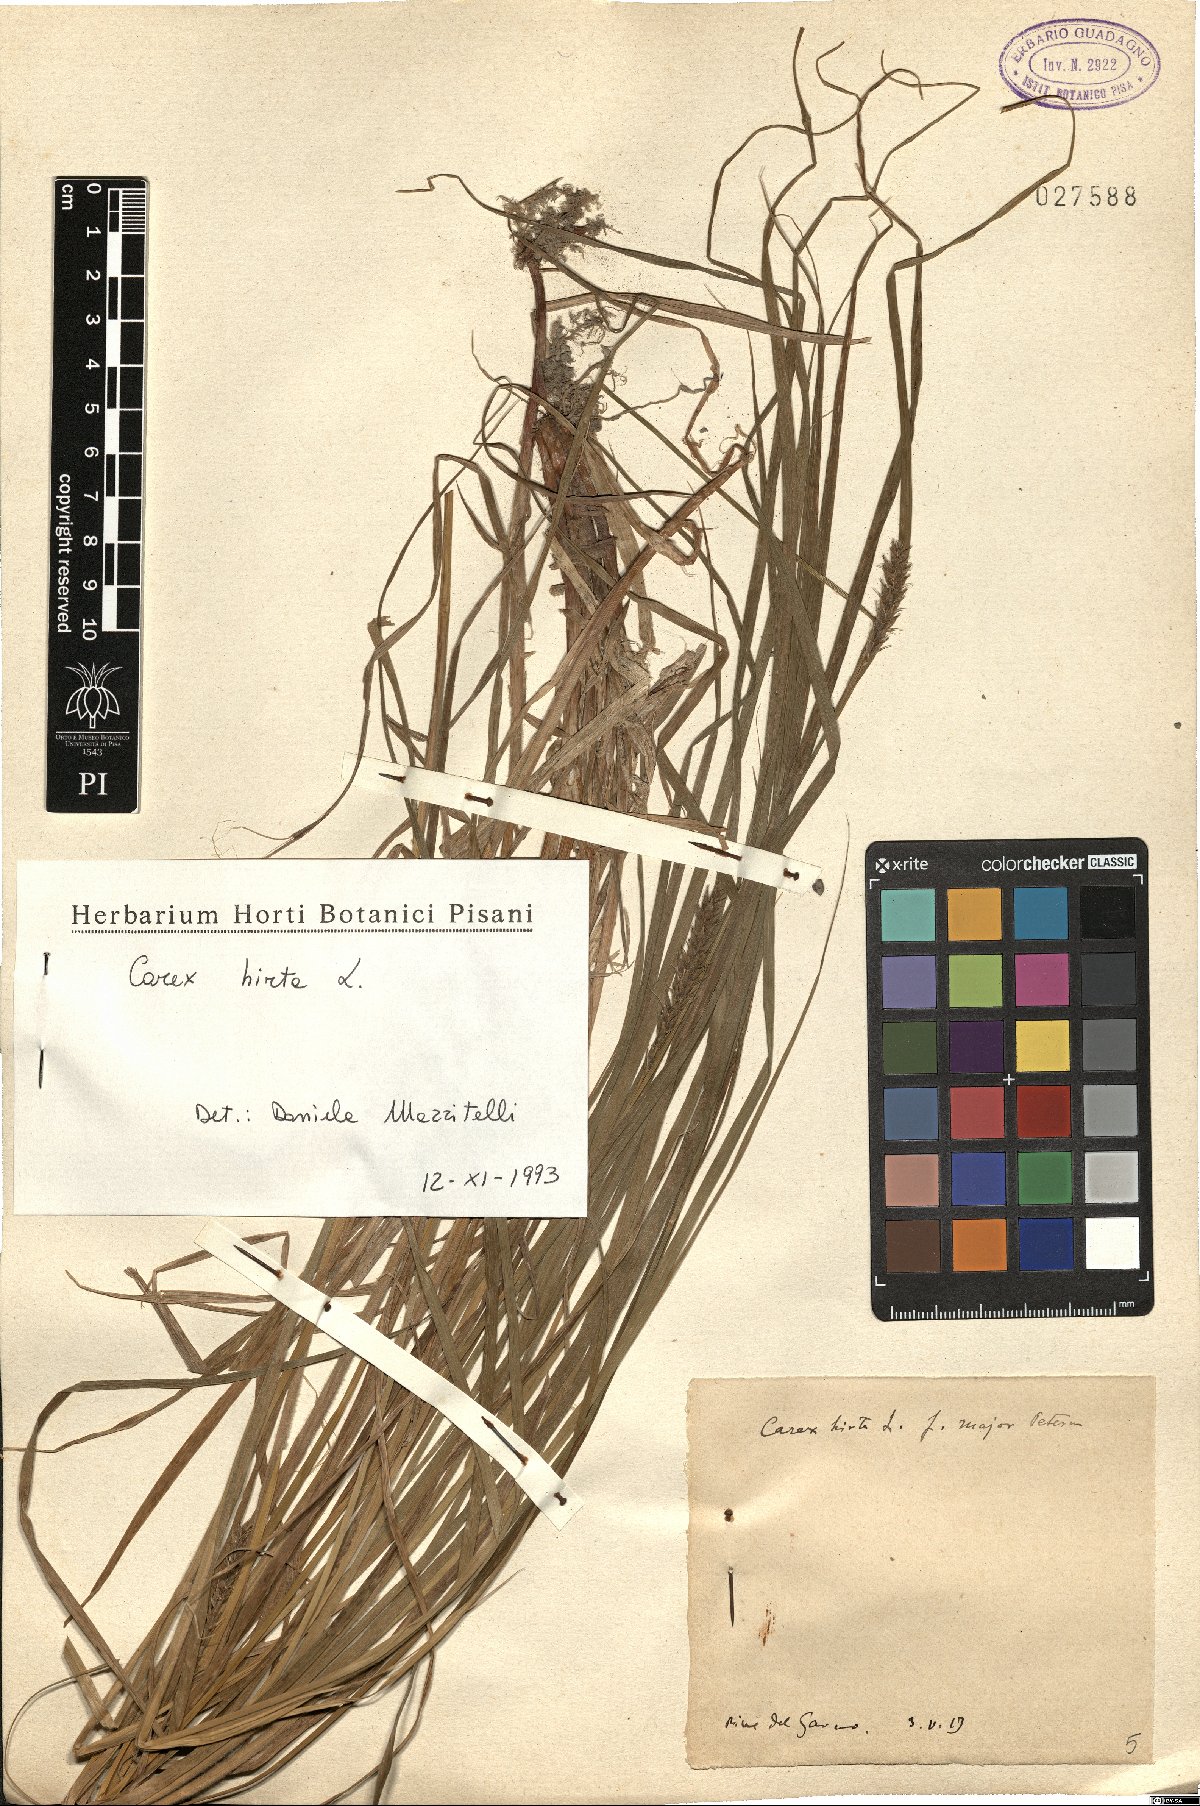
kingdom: Plantae
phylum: Tracheophyta
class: Liliopsida
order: Poales
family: Cyperaceae
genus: Carex
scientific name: Carex hirta
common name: Hairy sedge
